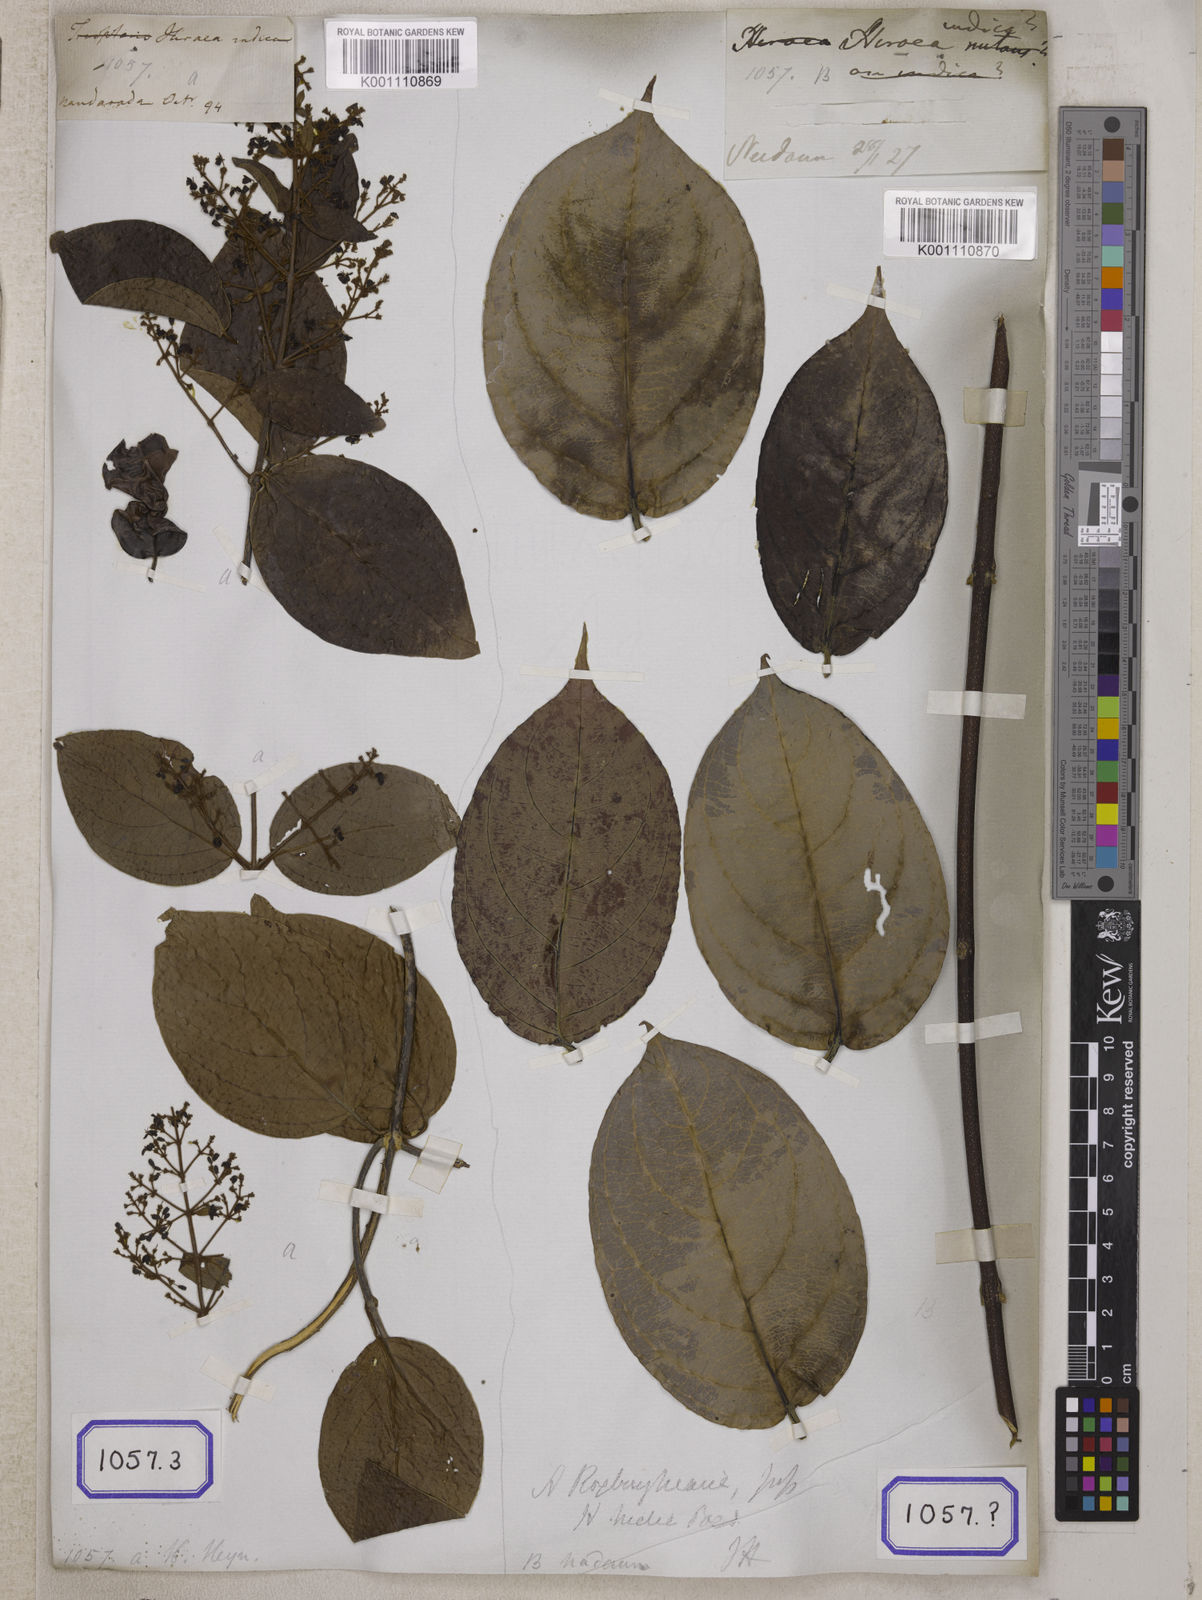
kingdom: Plantae
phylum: Tracheophyta
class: Magnoliopsida
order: Malpighiales
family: Malpighiaceae
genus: Aspidopterys
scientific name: Aspidopterys indica
